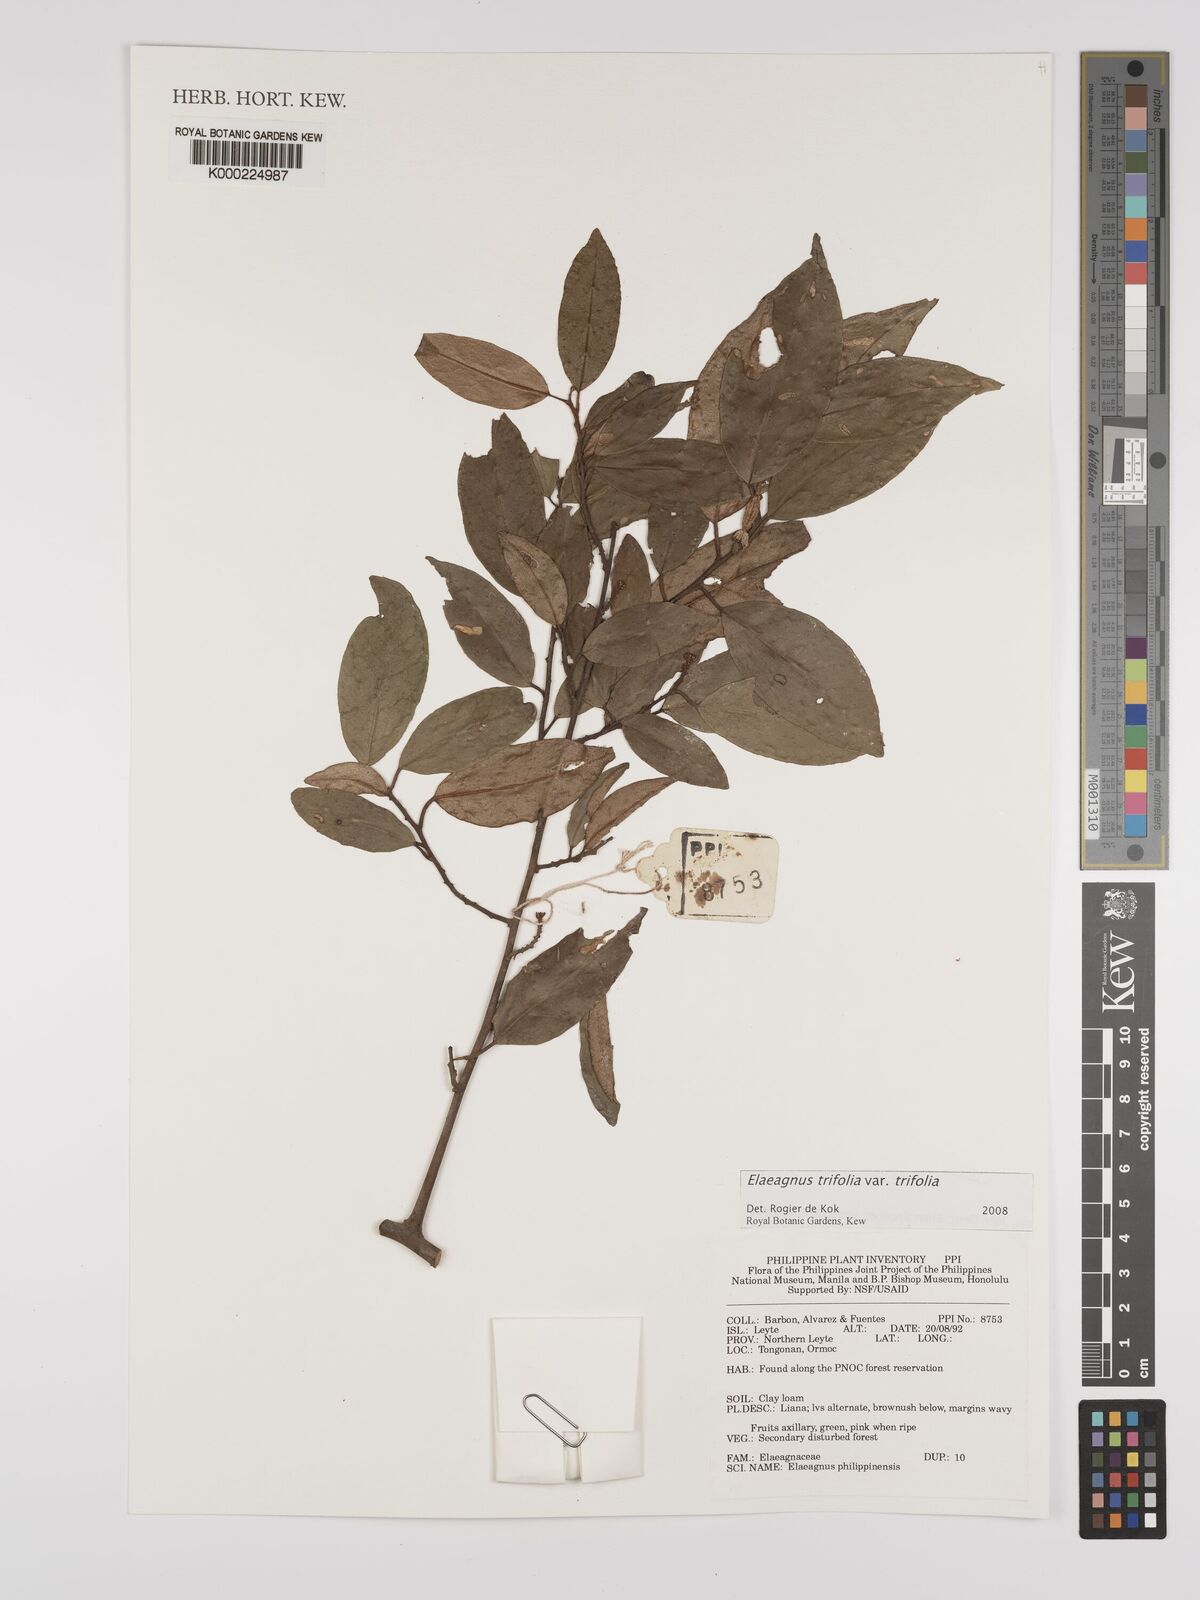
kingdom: Plantae
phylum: Tracheophyta
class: Magnoliopsida
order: Rosales
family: Elaeagnaceae
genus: Elaeagnus
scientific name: Elaeagnus
